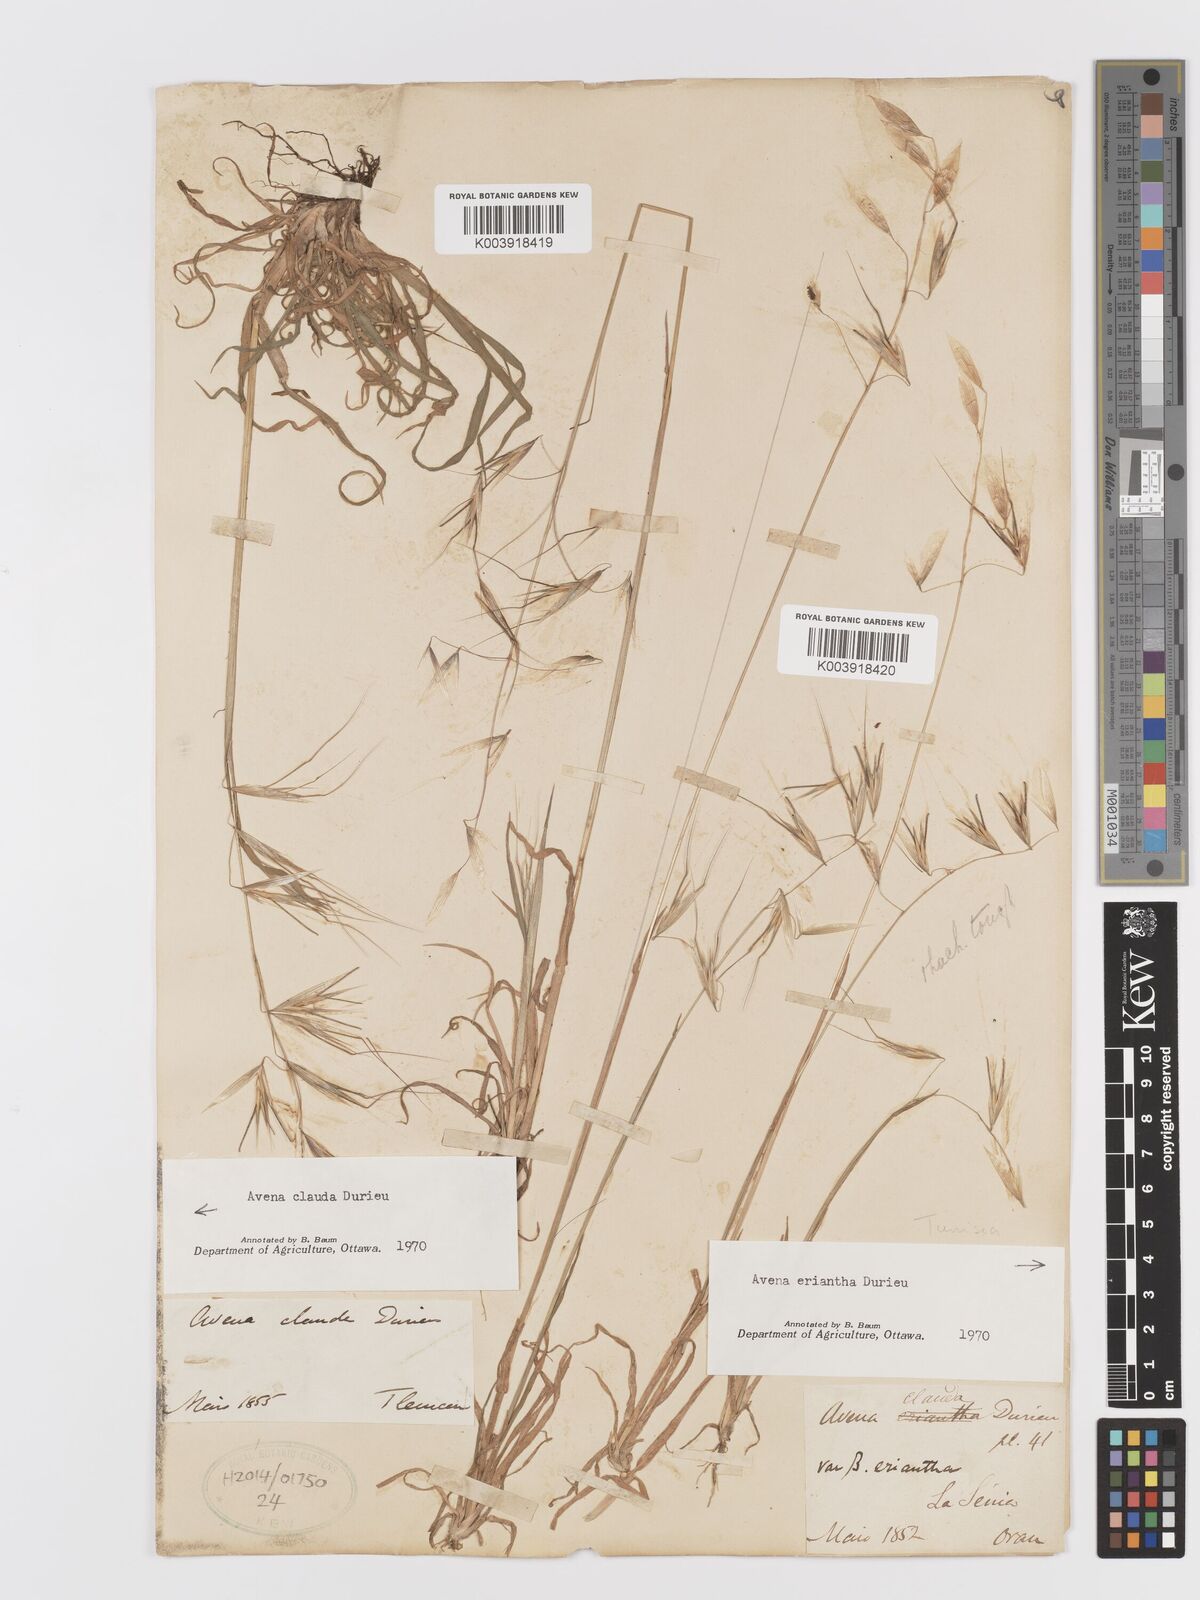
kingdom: Plantae
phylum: Tracheophyta
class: Liliopsida
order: Poales
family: Poaceae
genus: Avena
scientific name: Avena clauda
